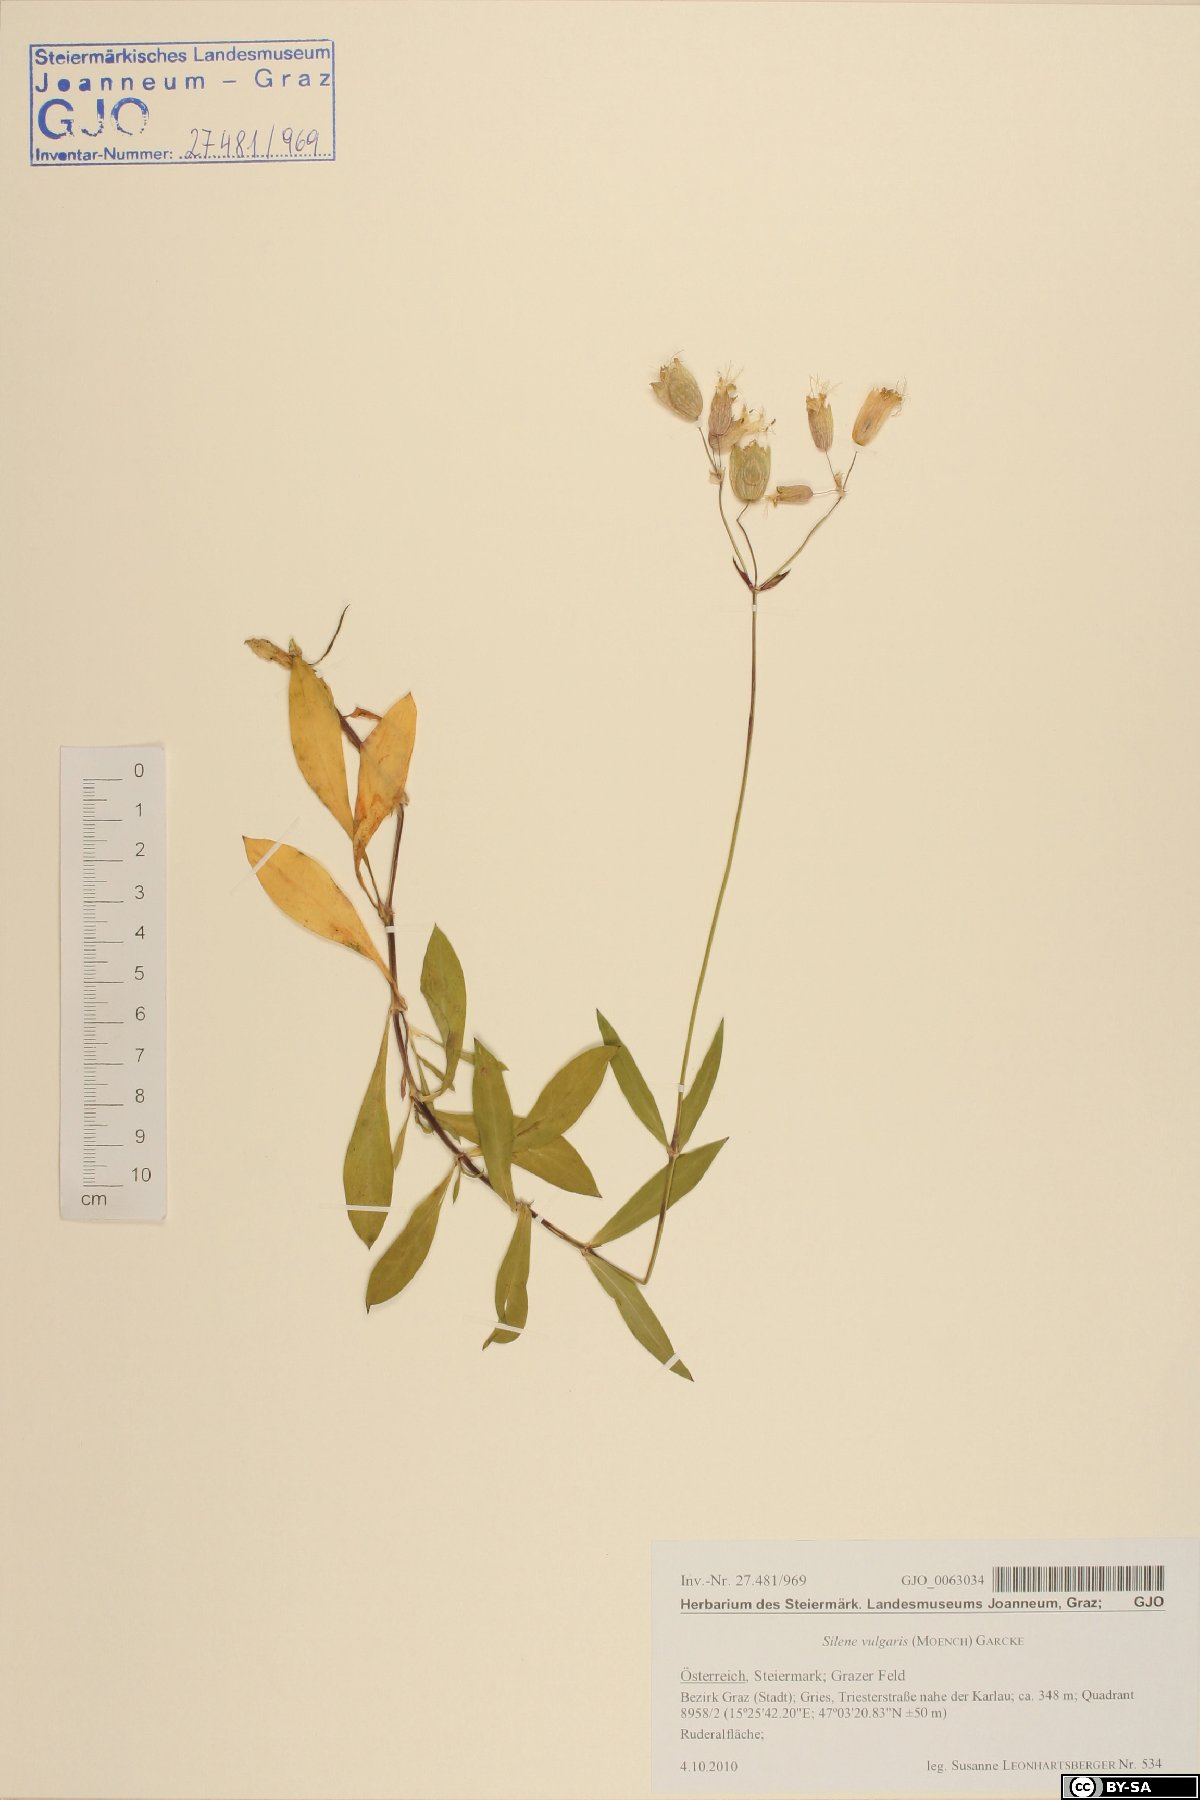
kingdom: Plantae
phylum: Tracheophyta
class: Magnoliopsida
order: Caryophyllales
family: Caryophyllaceae
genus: Silene
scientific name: Silene vulgaris
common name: Bladder campion
